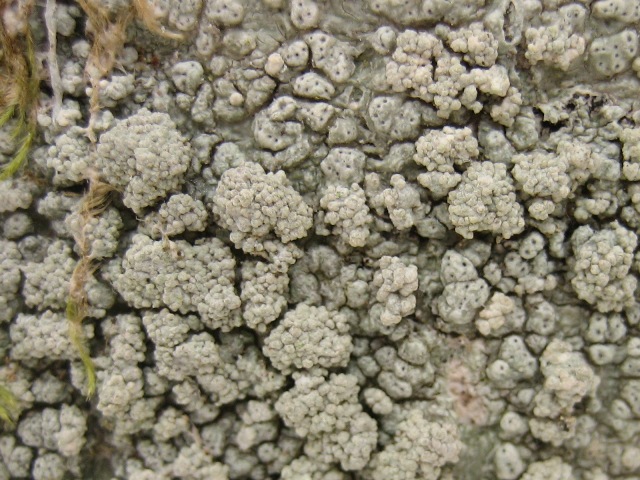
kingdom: Fungi
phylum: Ascomycota
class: Lecanoromycetes
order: Pertusariales
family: Pertusariaceae
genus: Pertusaria
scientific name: Pertusaria pertusa
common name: almindelig prikvortelav
